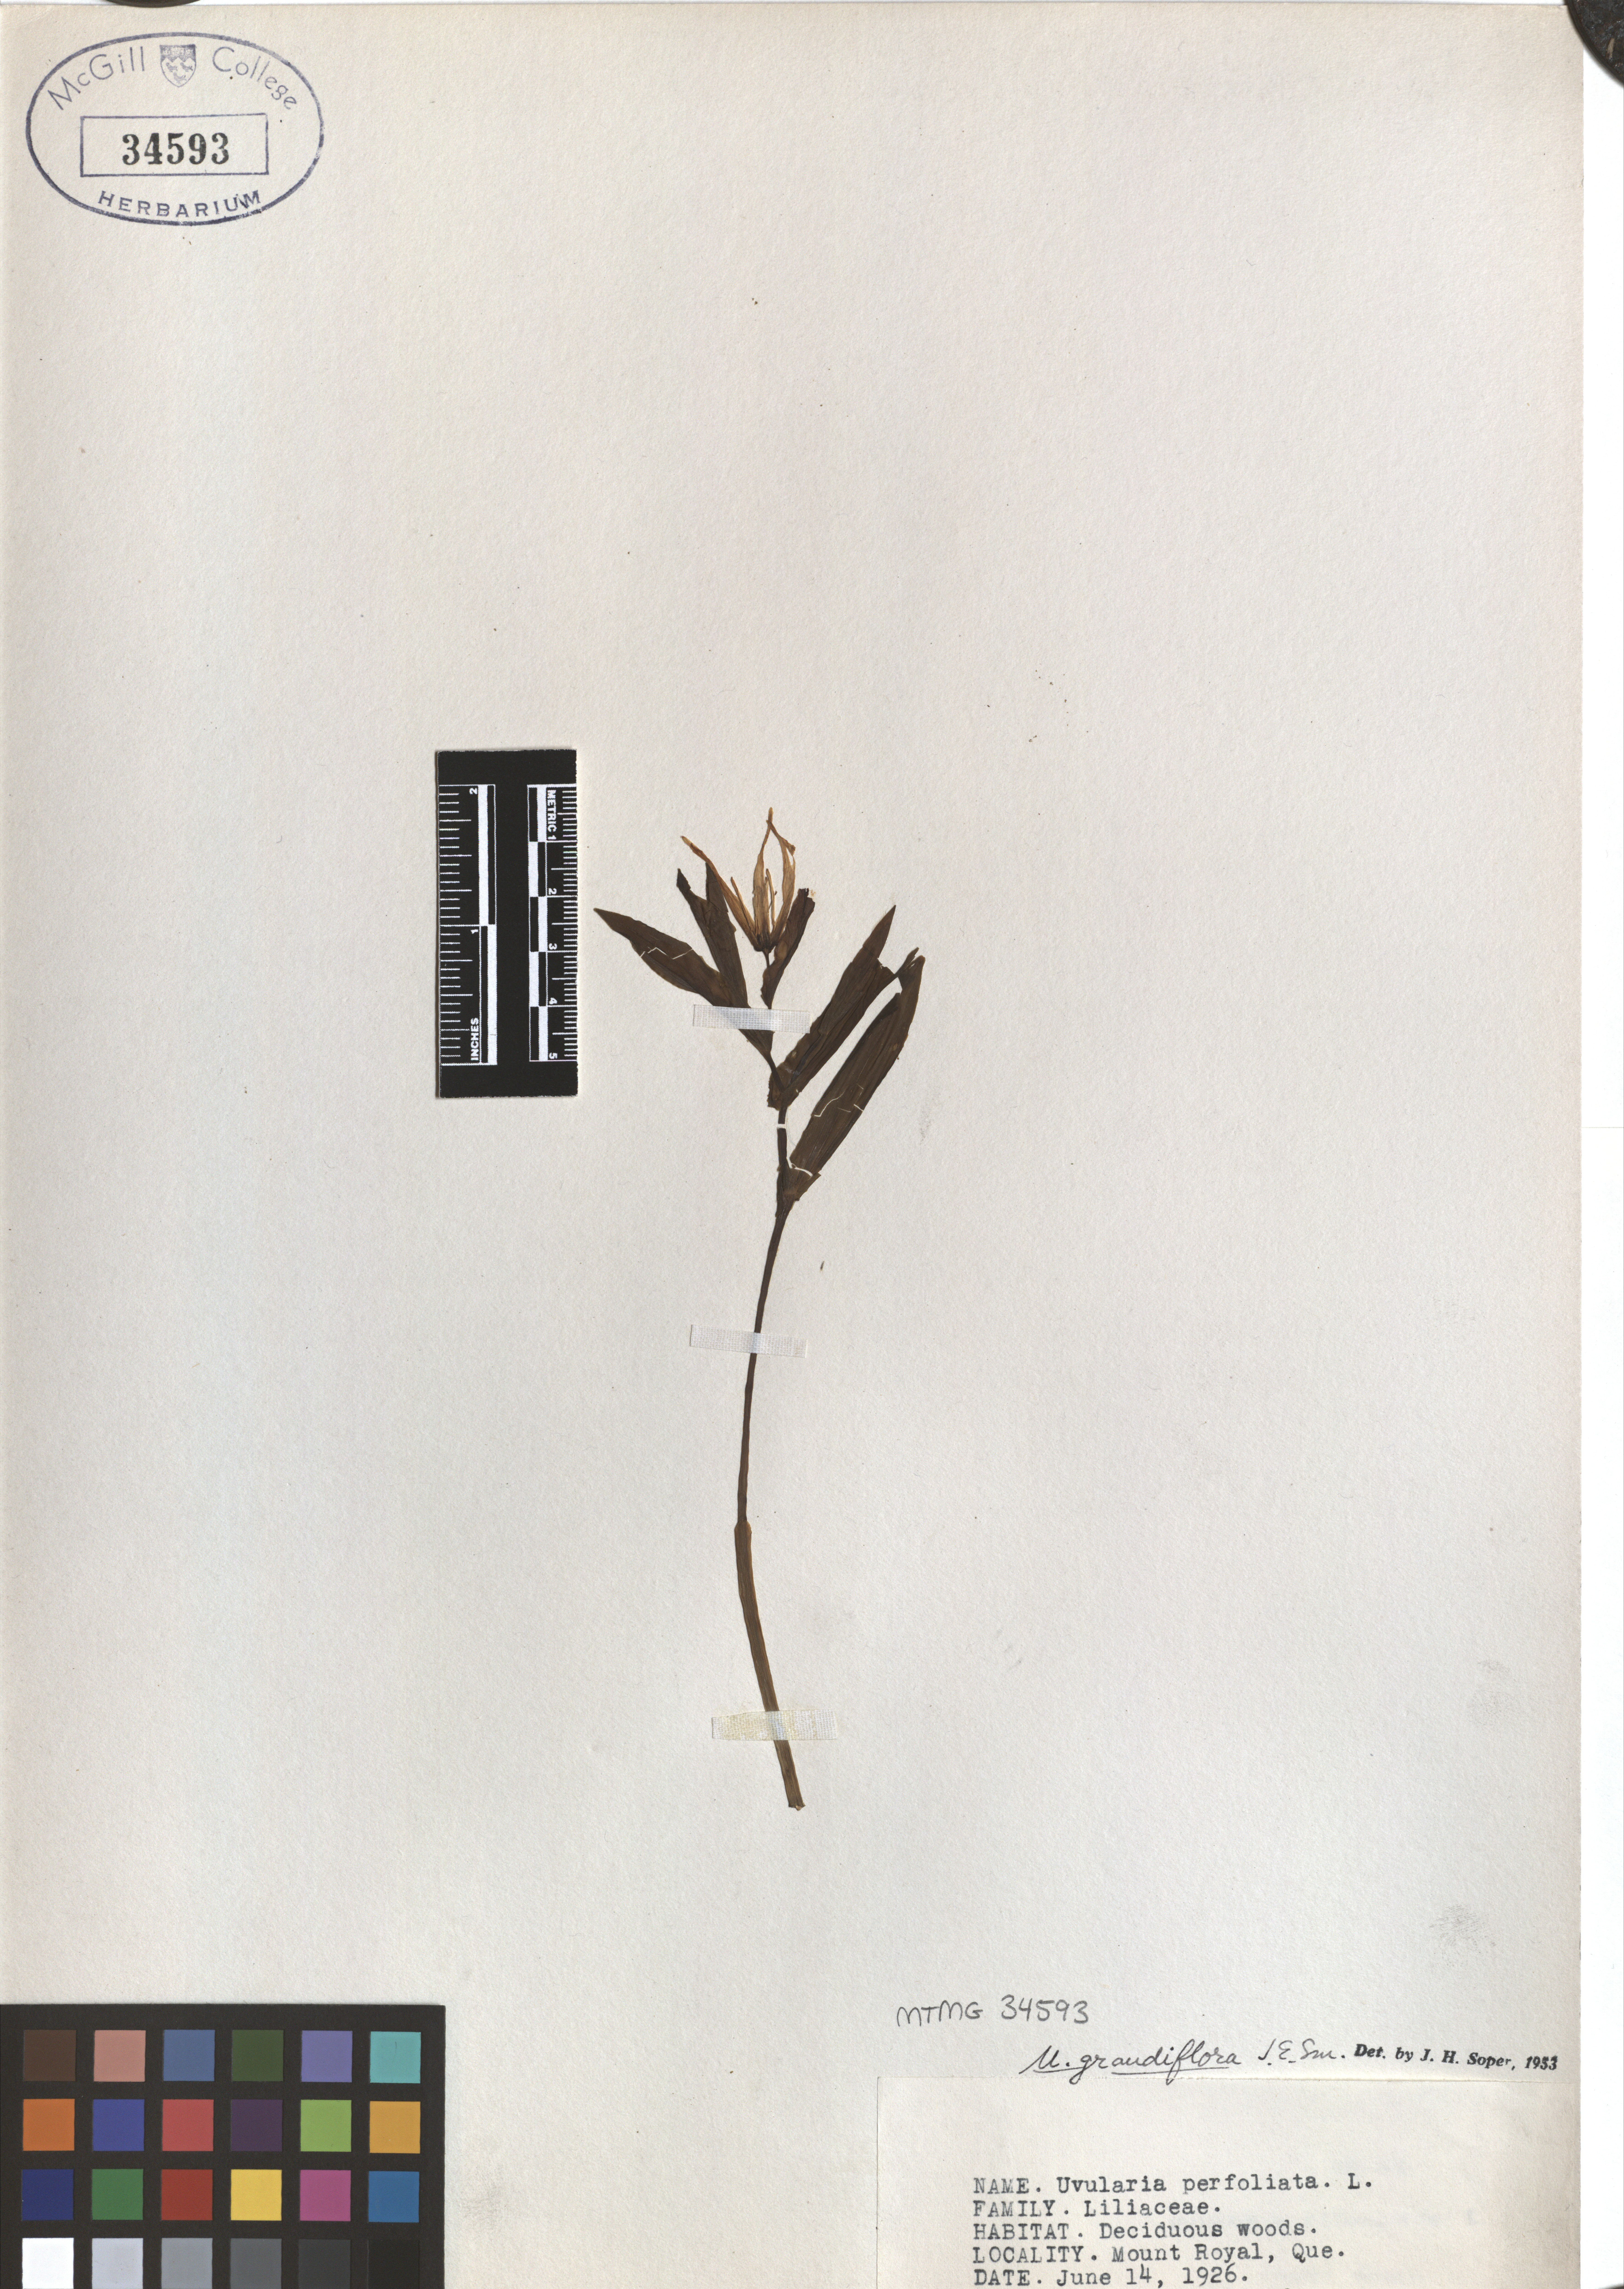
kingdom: Plantae
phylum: Tracheophyta
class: Liliopsida
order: Liliales
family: Colchicaceae
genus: Uvularia
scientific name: Uvularia grandiflora
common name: Bellwort
